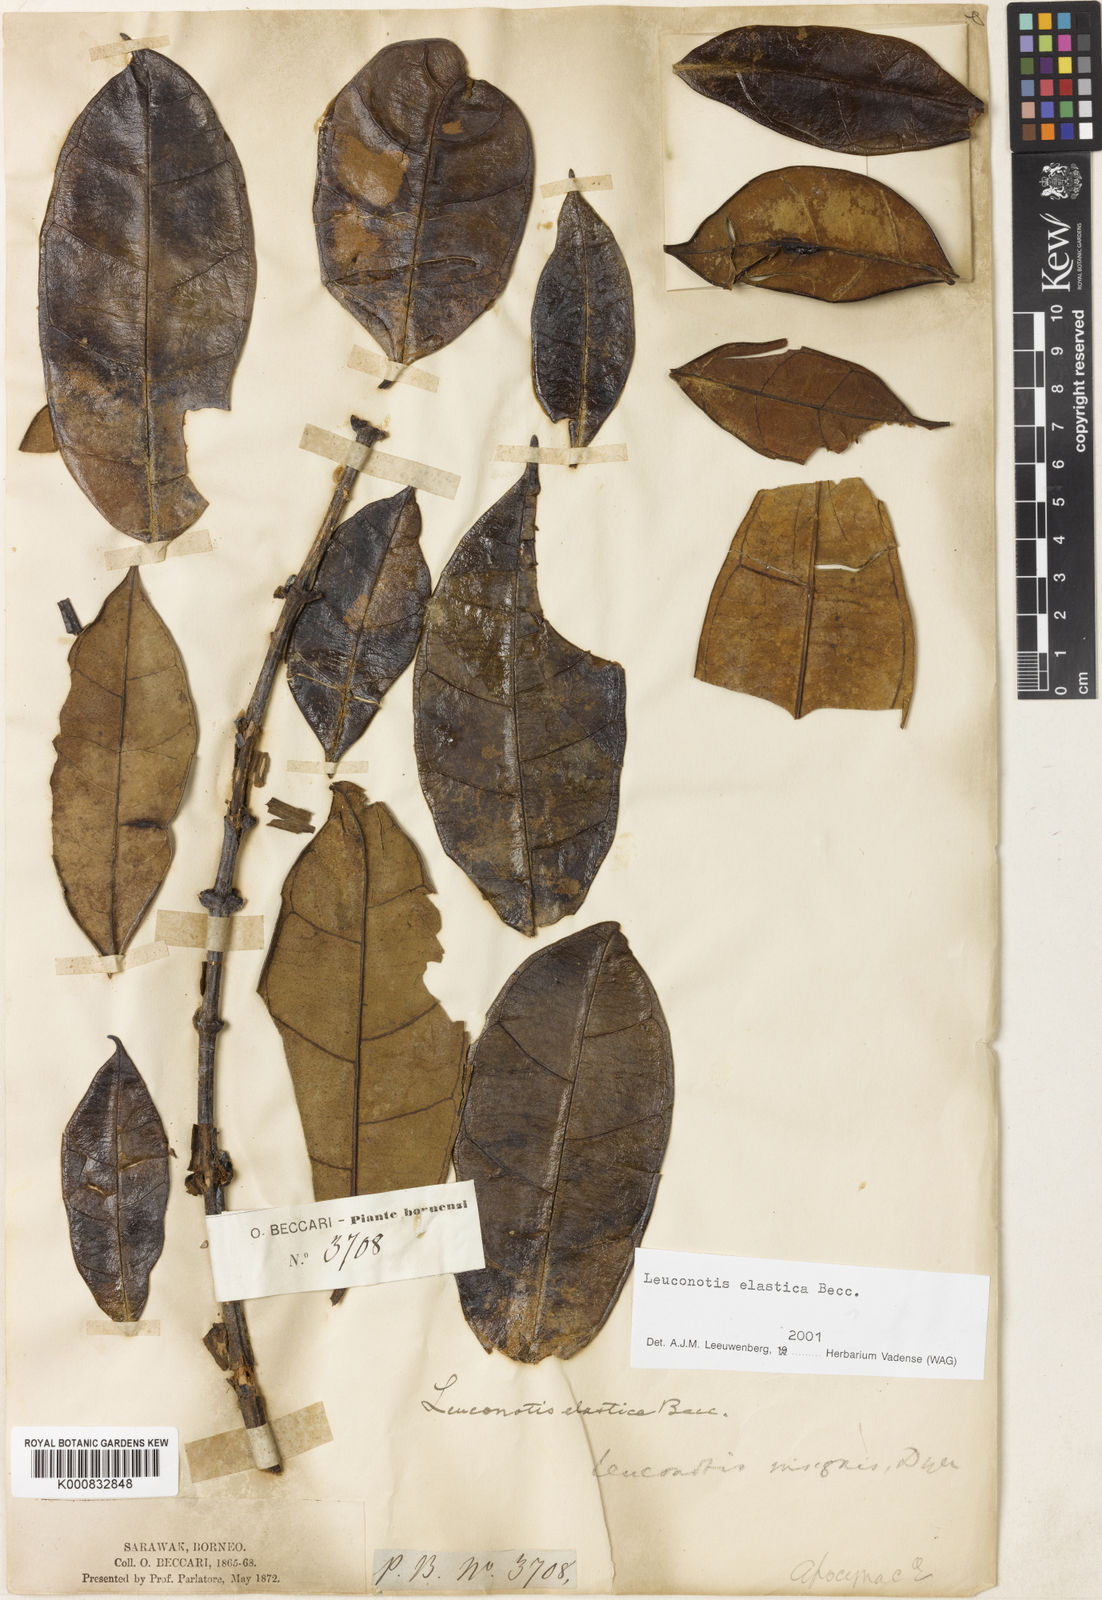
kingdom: Plantae
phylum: Tracheophyta
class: Magnoliopsida
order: Gentianales
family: Apocynaceae
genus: Leuconotis
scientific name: Leuconotis griffithii
